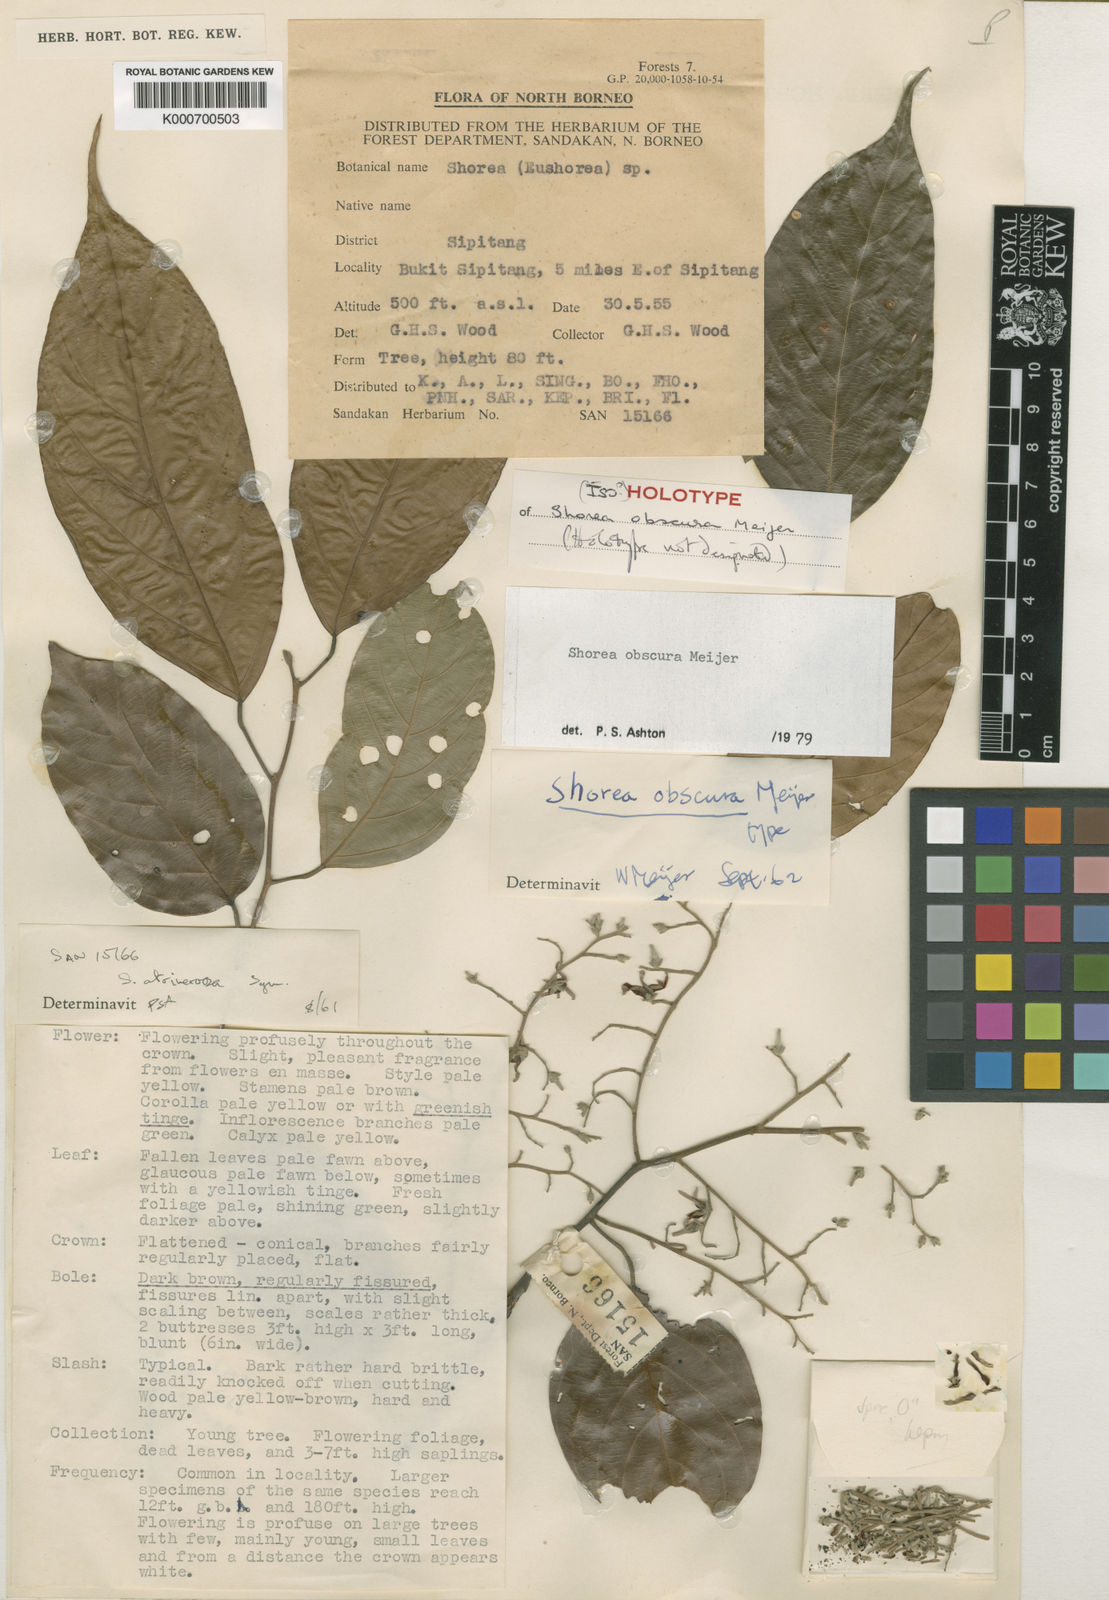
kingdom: Plantae
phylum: Tracheophyta
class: Magnoliopsida
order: Malvales
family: Dipterocarpaceae
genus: Shorea
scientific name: Shorea obscura
